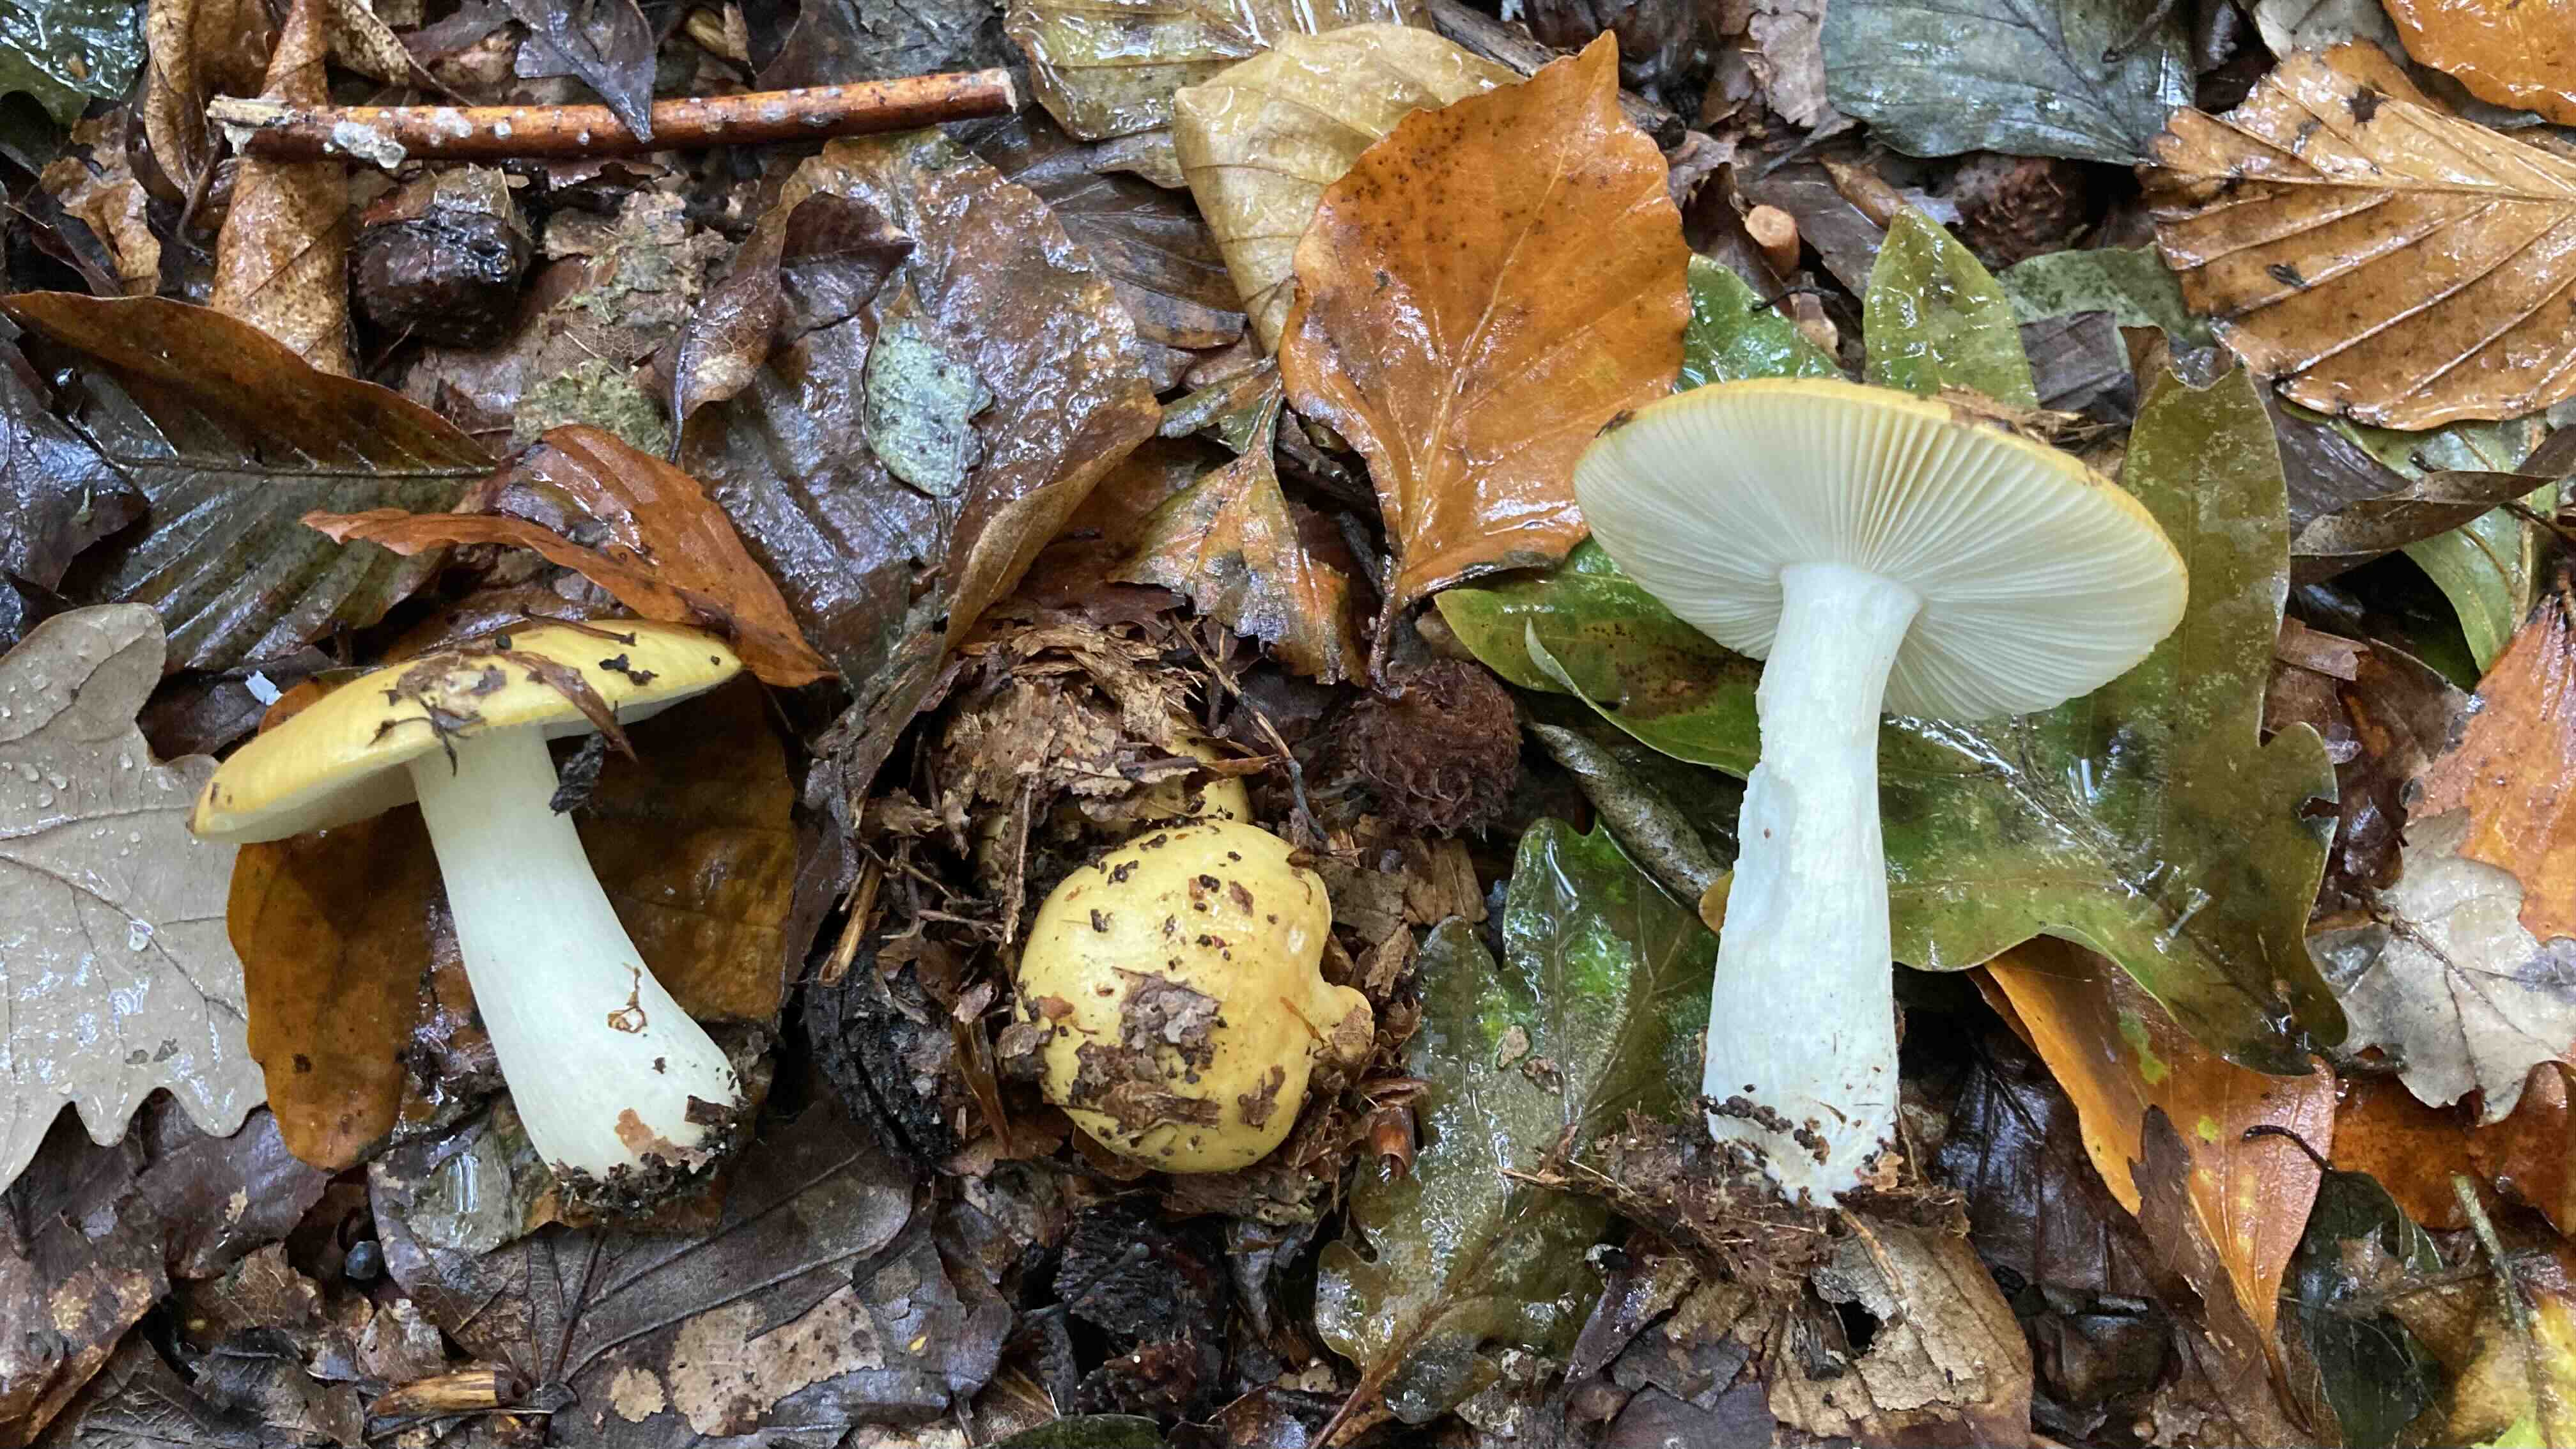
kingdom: Fungi
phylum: Basidiomycota
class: Agaricomycetes
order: Russulales
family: Russulaceae
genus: Russula
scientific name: Russula ochroleuca
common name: okkergul skørhat
